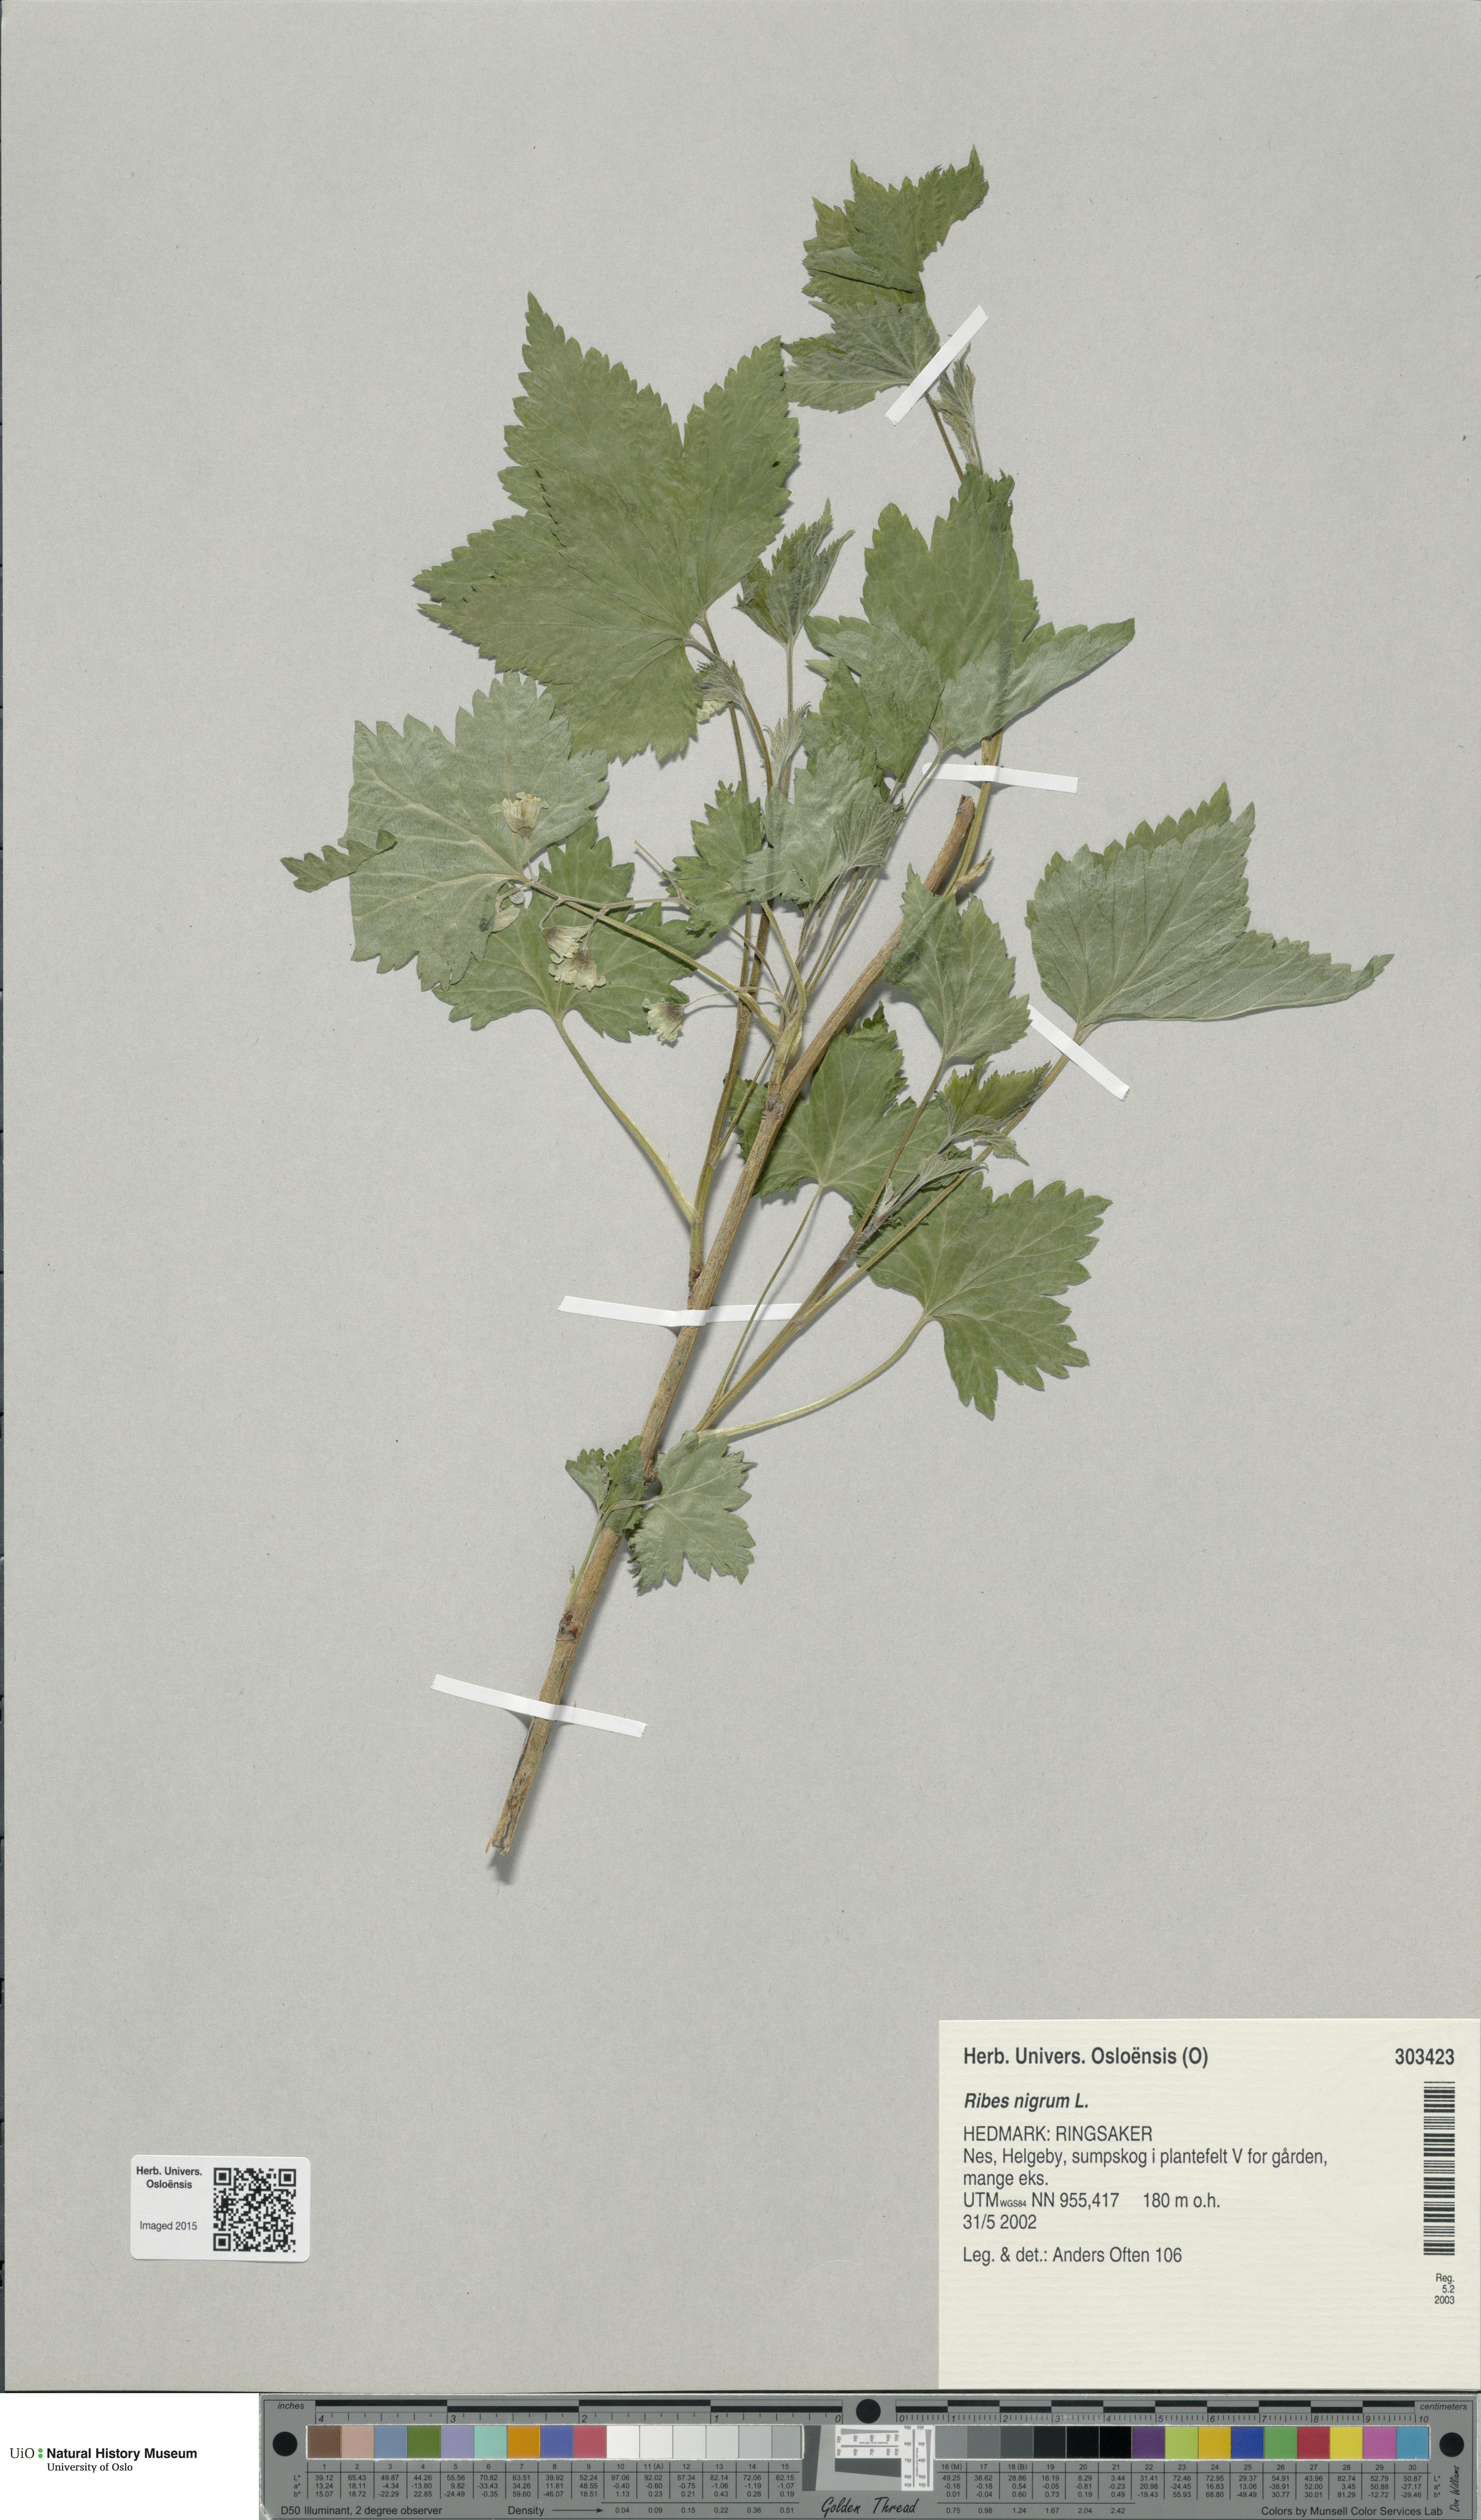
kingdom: Plantae
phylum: Tracheophyta
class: Magnoliopsida
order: Saxifragales
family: Grossulariaceae
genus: Ribes
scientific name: Ribes nigrum
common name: Black currant
